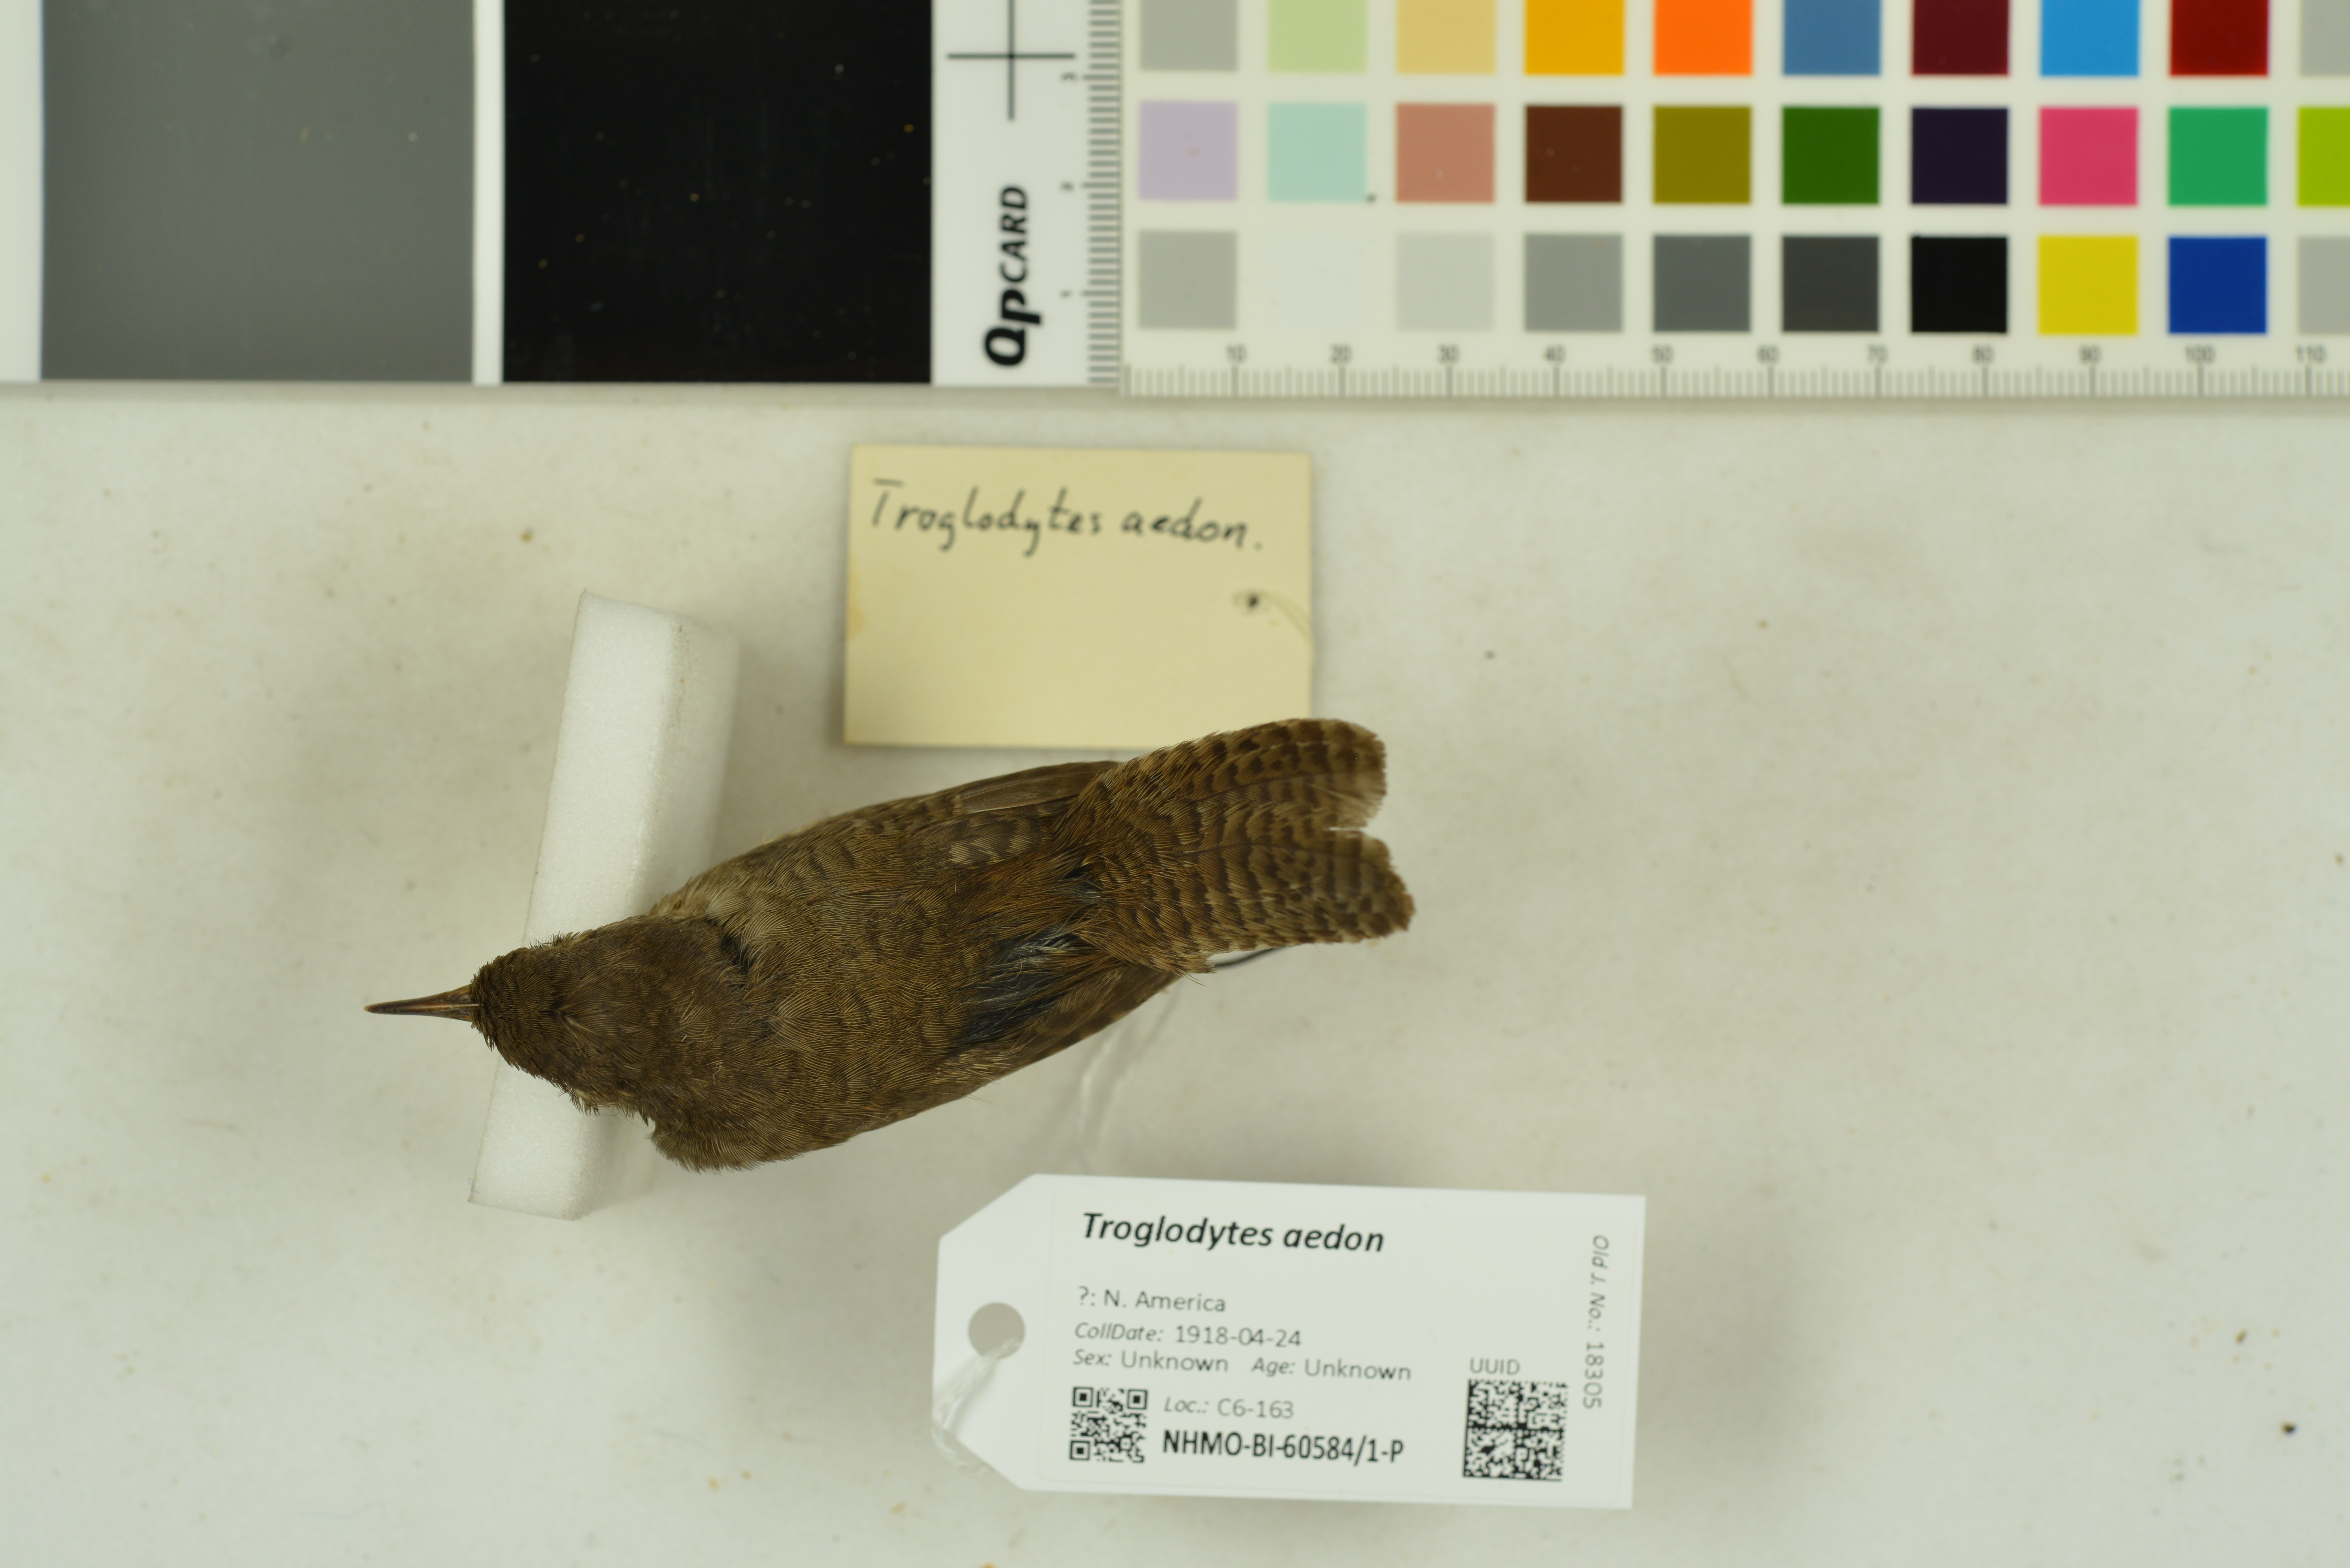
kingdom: Animalia
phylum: Chordata
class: Aves
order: Passeriformes
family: Troglodytidae
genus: Troglodytes
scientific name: Troglodytes aedon
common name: House wren
